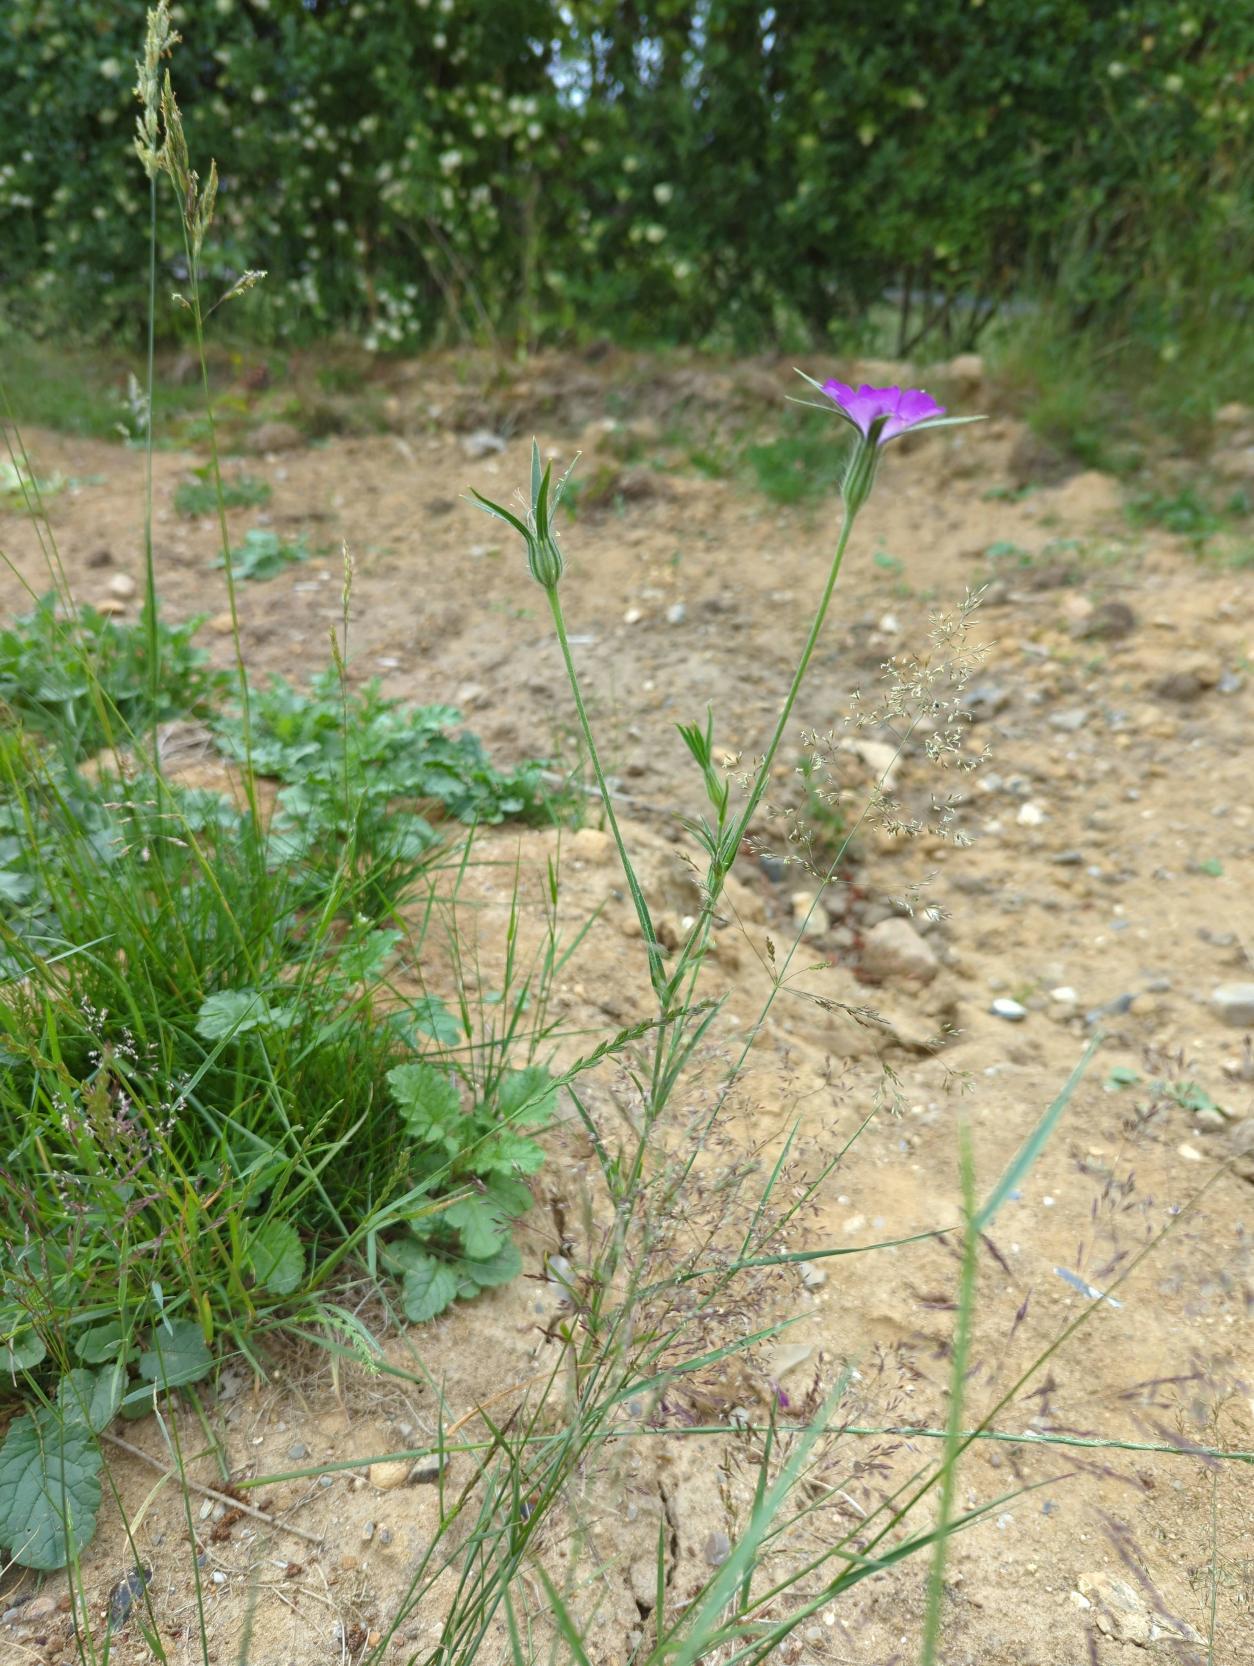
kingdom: Plantae
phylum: Tracheophyta
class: Magnoliopsida
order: Caryophyllales
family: Caryophyllaceae
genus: Agrostemma
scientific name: Agrostemma githago
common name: Klinte
